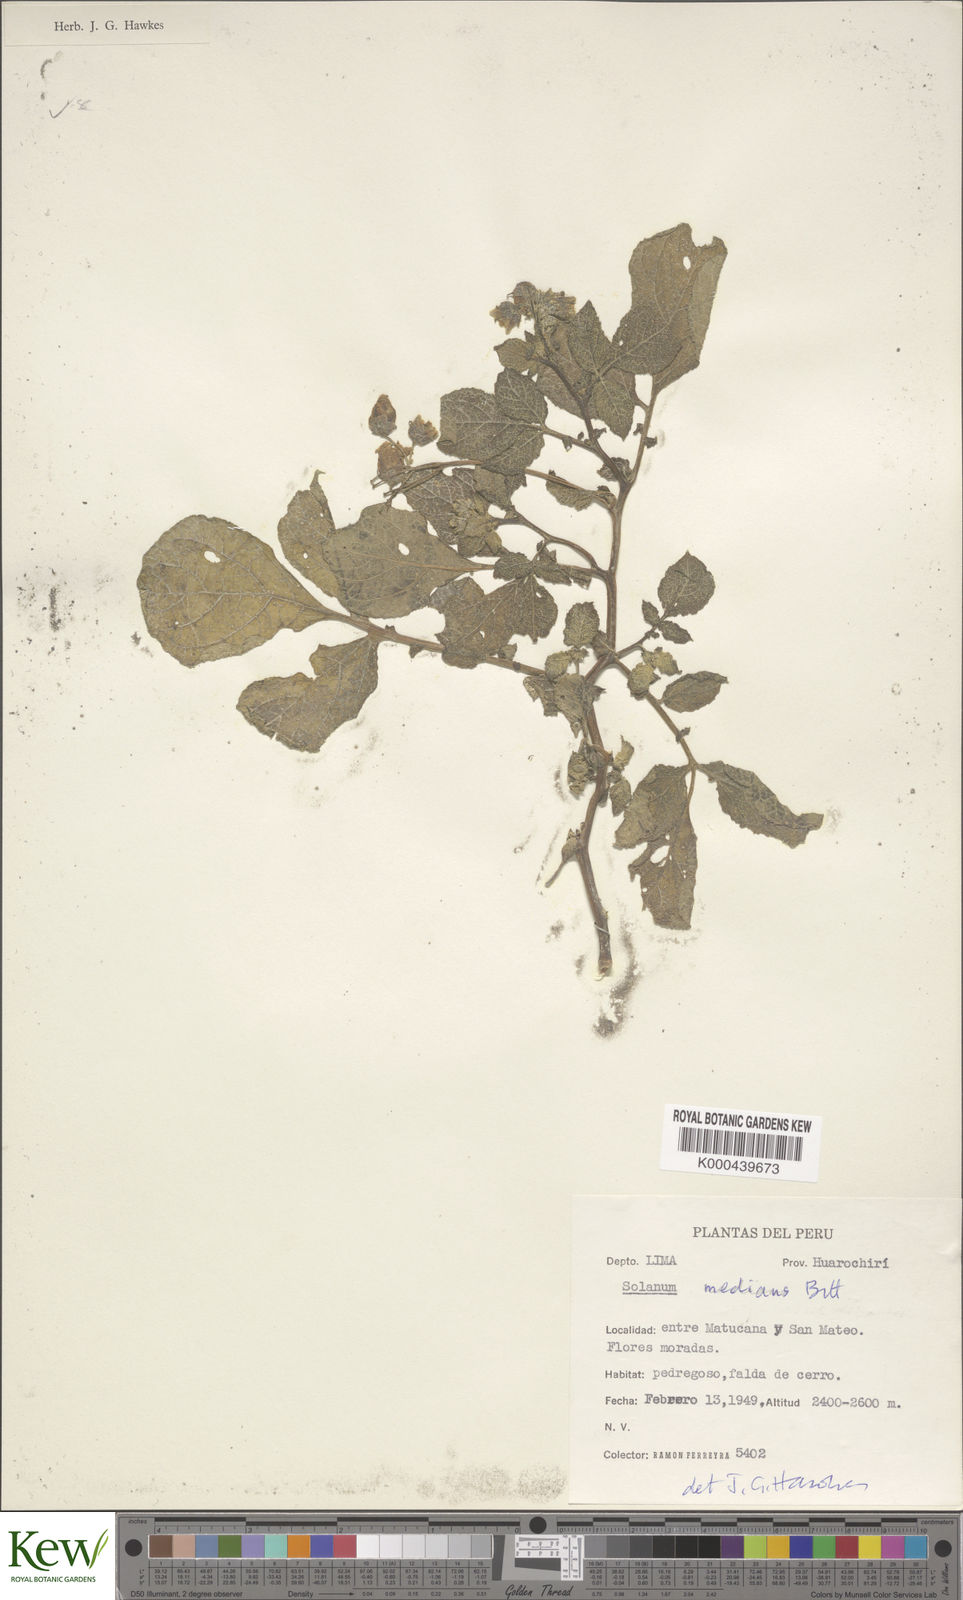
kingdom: Plantae
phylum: Tracheophyta
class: Magnoliopsida
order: Solanales
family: Solanaceae
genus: Solanum
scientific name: Solanum medians
